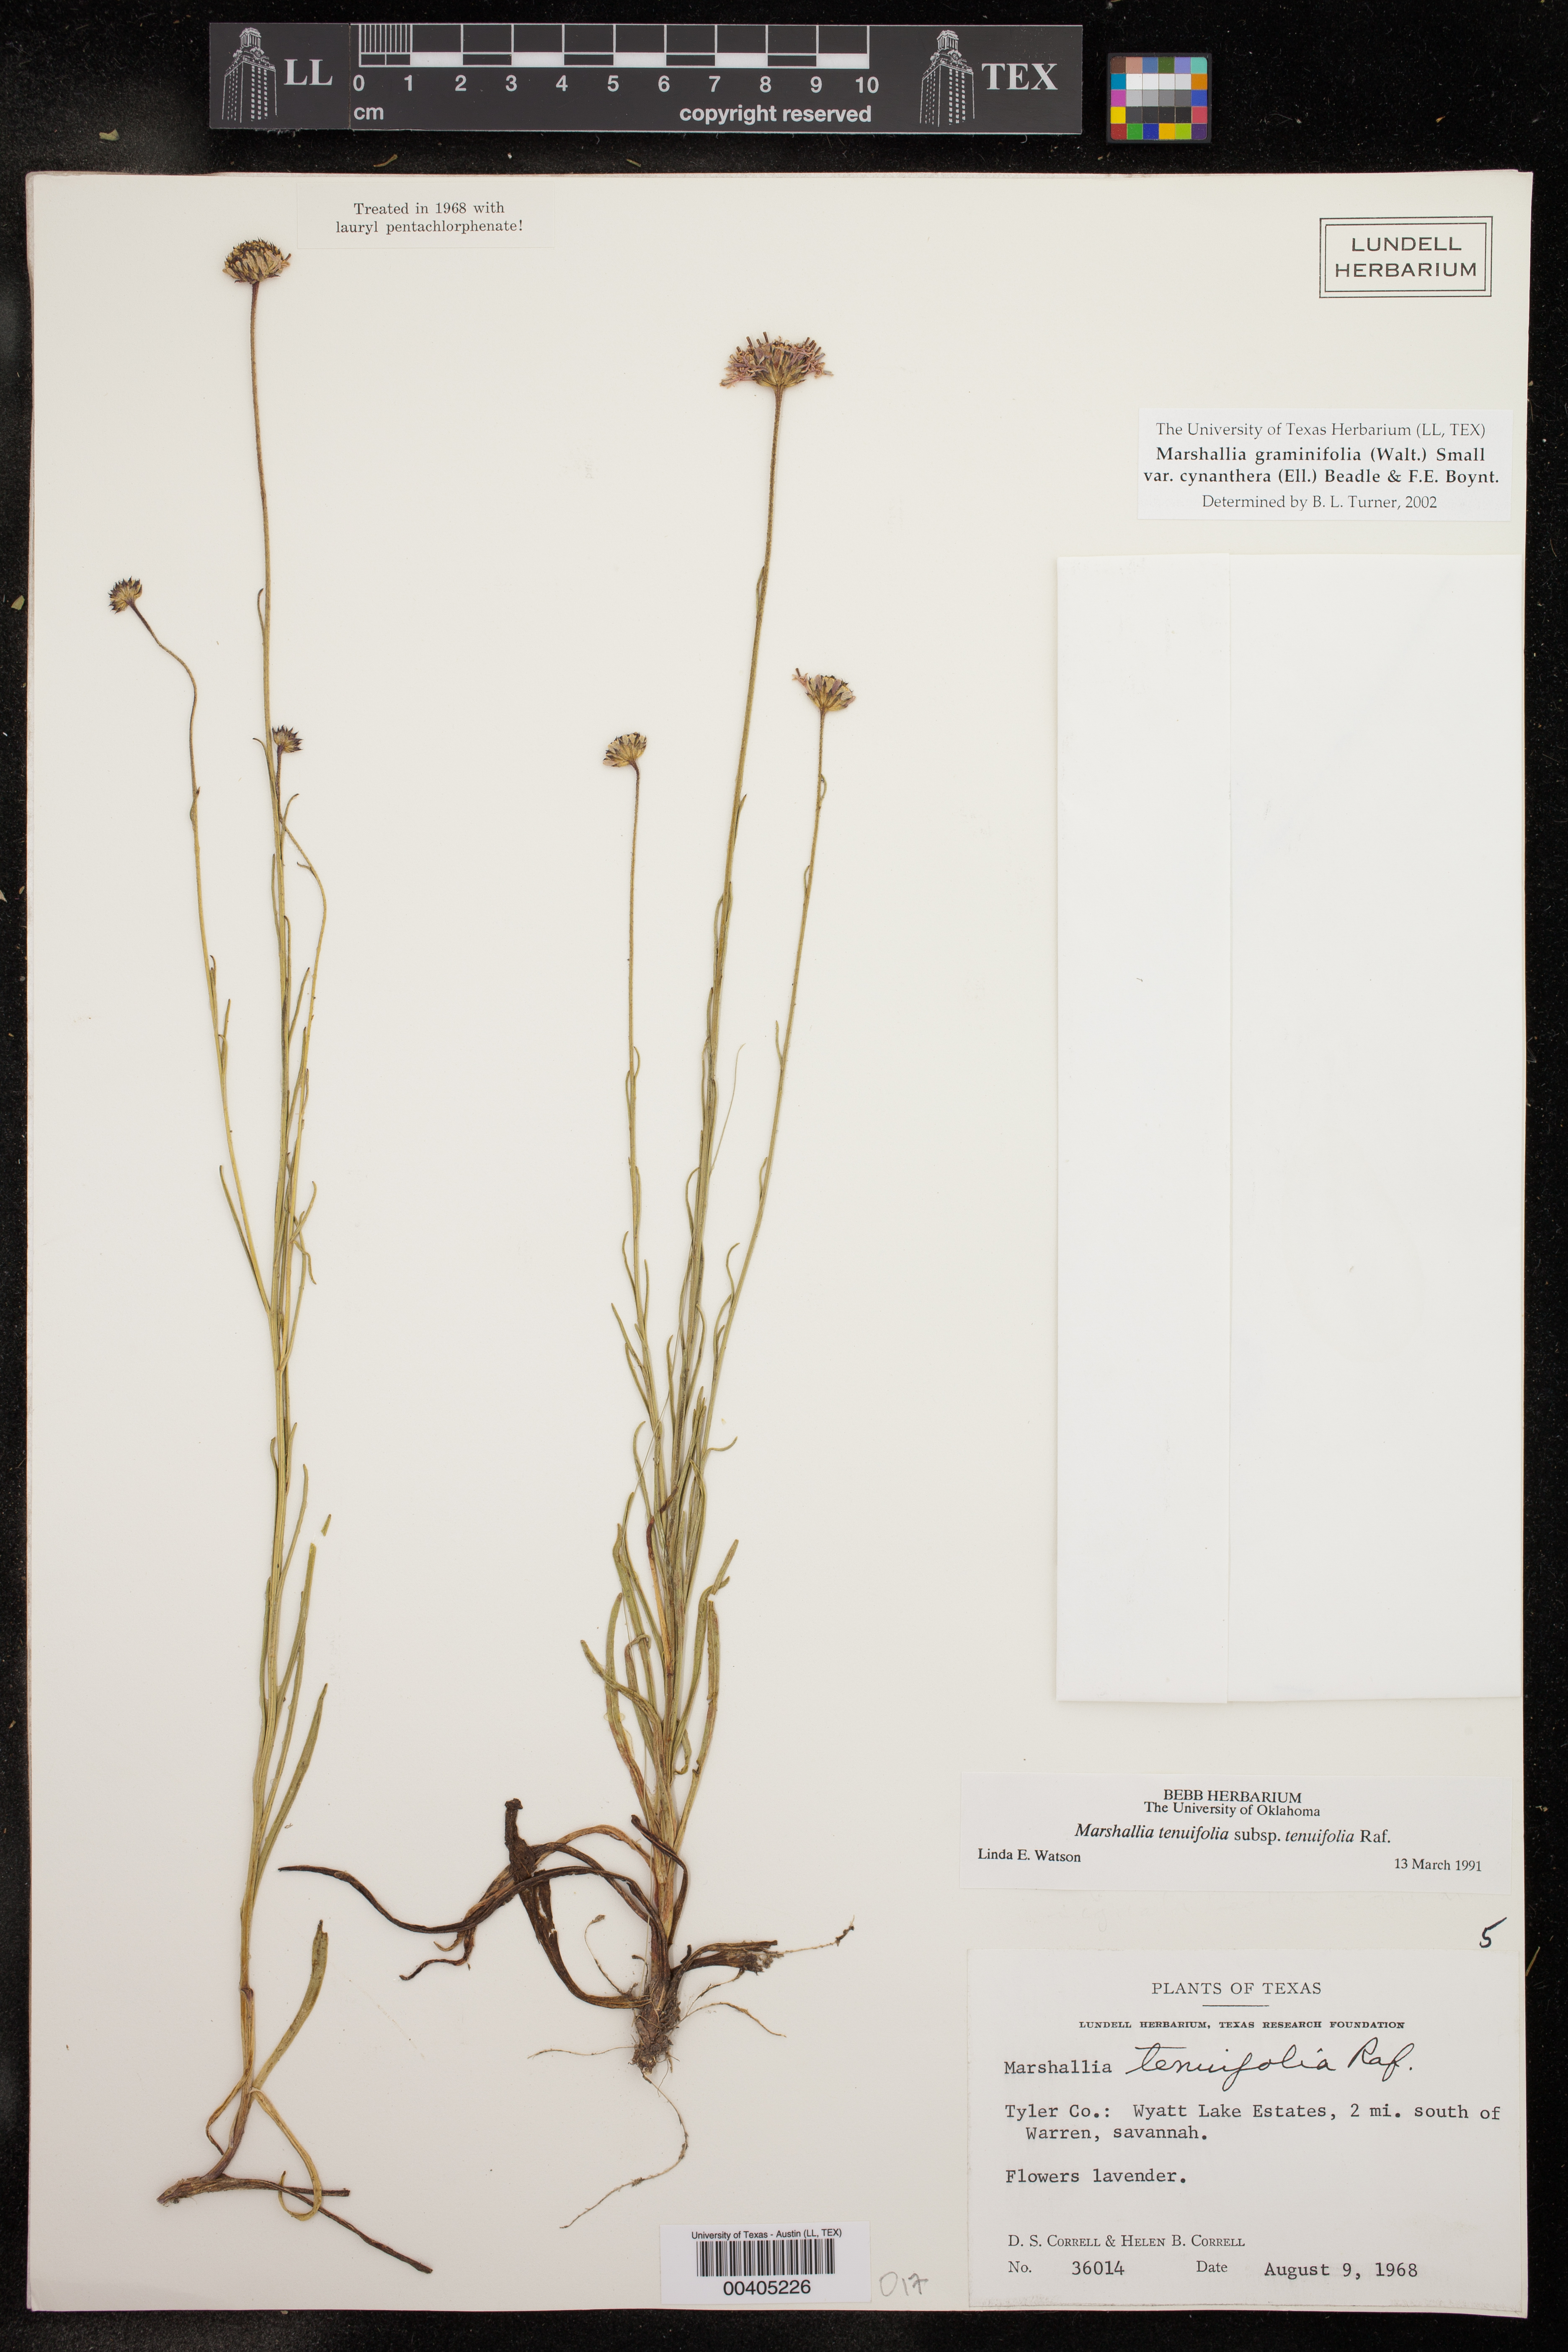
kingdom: Plantae
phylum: Tracheophyta
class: Magnoliopsida
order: Asterales
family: Asteraceae
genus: Vernonia
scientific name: Vernonia angustifolia
